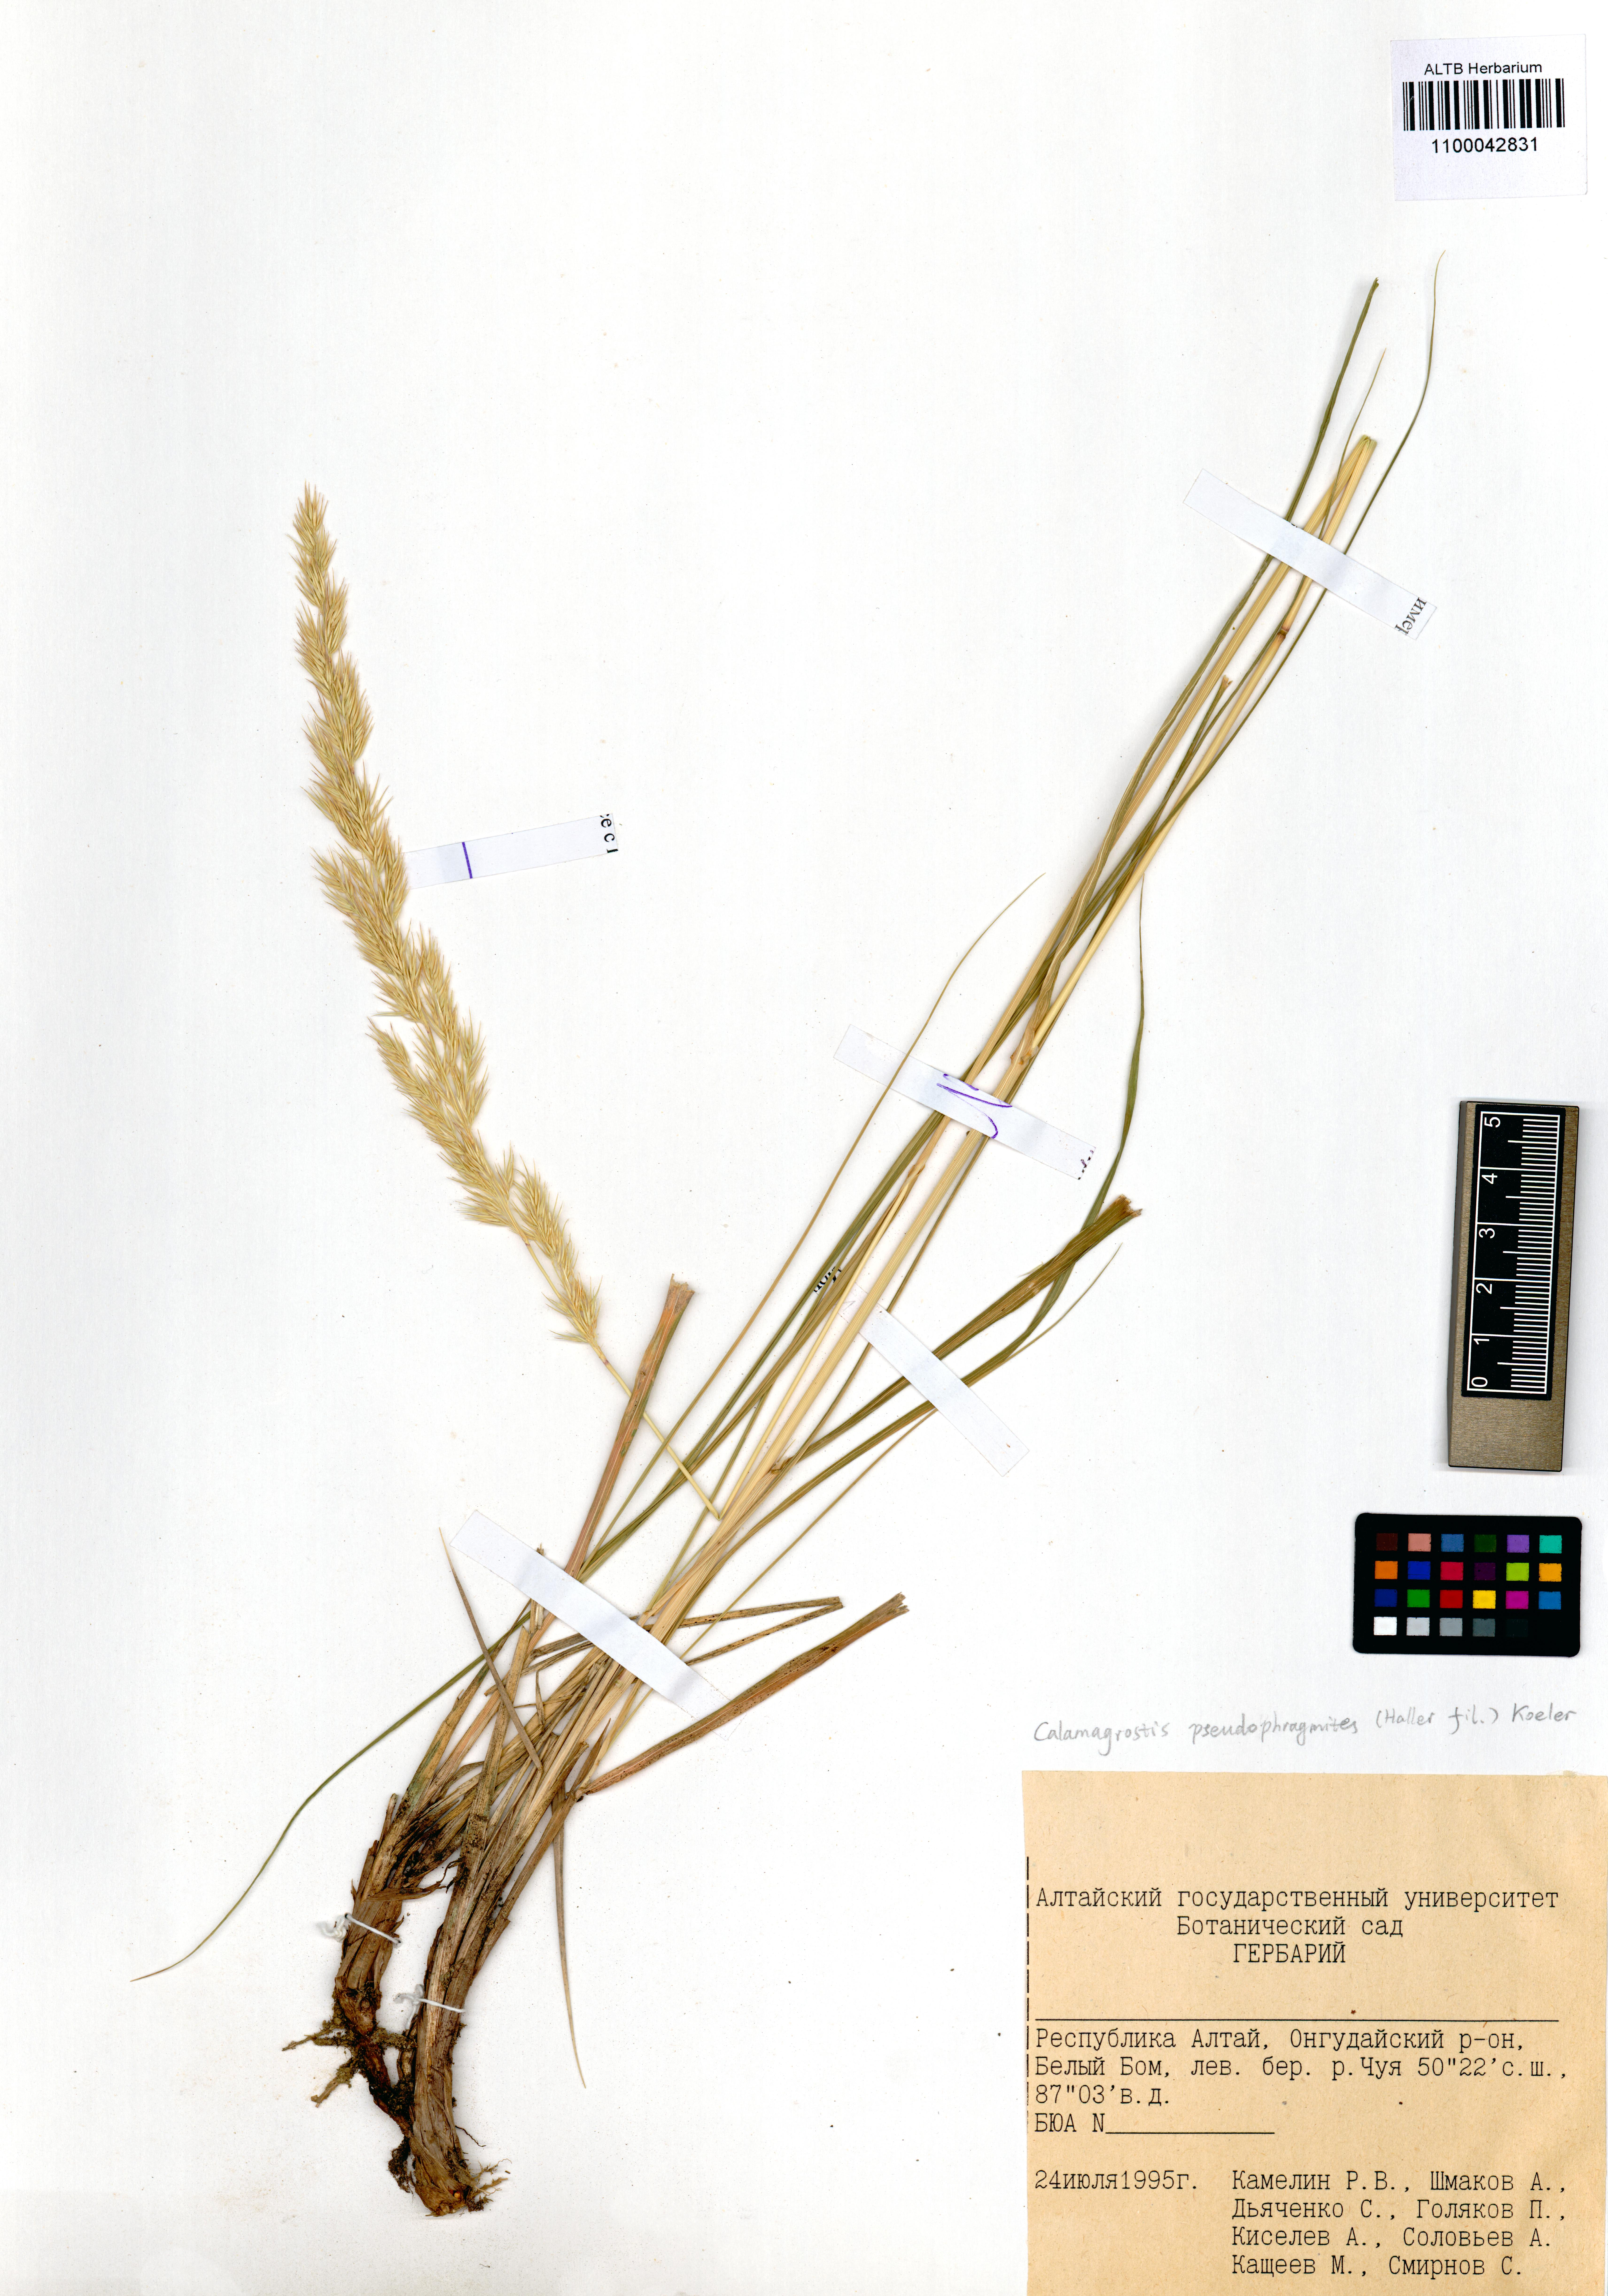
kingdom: Plantae
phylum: Tracheophyta
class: Liliopsida
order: Poales
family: Poaceae
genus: Calamagrostis
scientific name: Calamagrostis pseudophragmites
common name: Coastal small-reed
